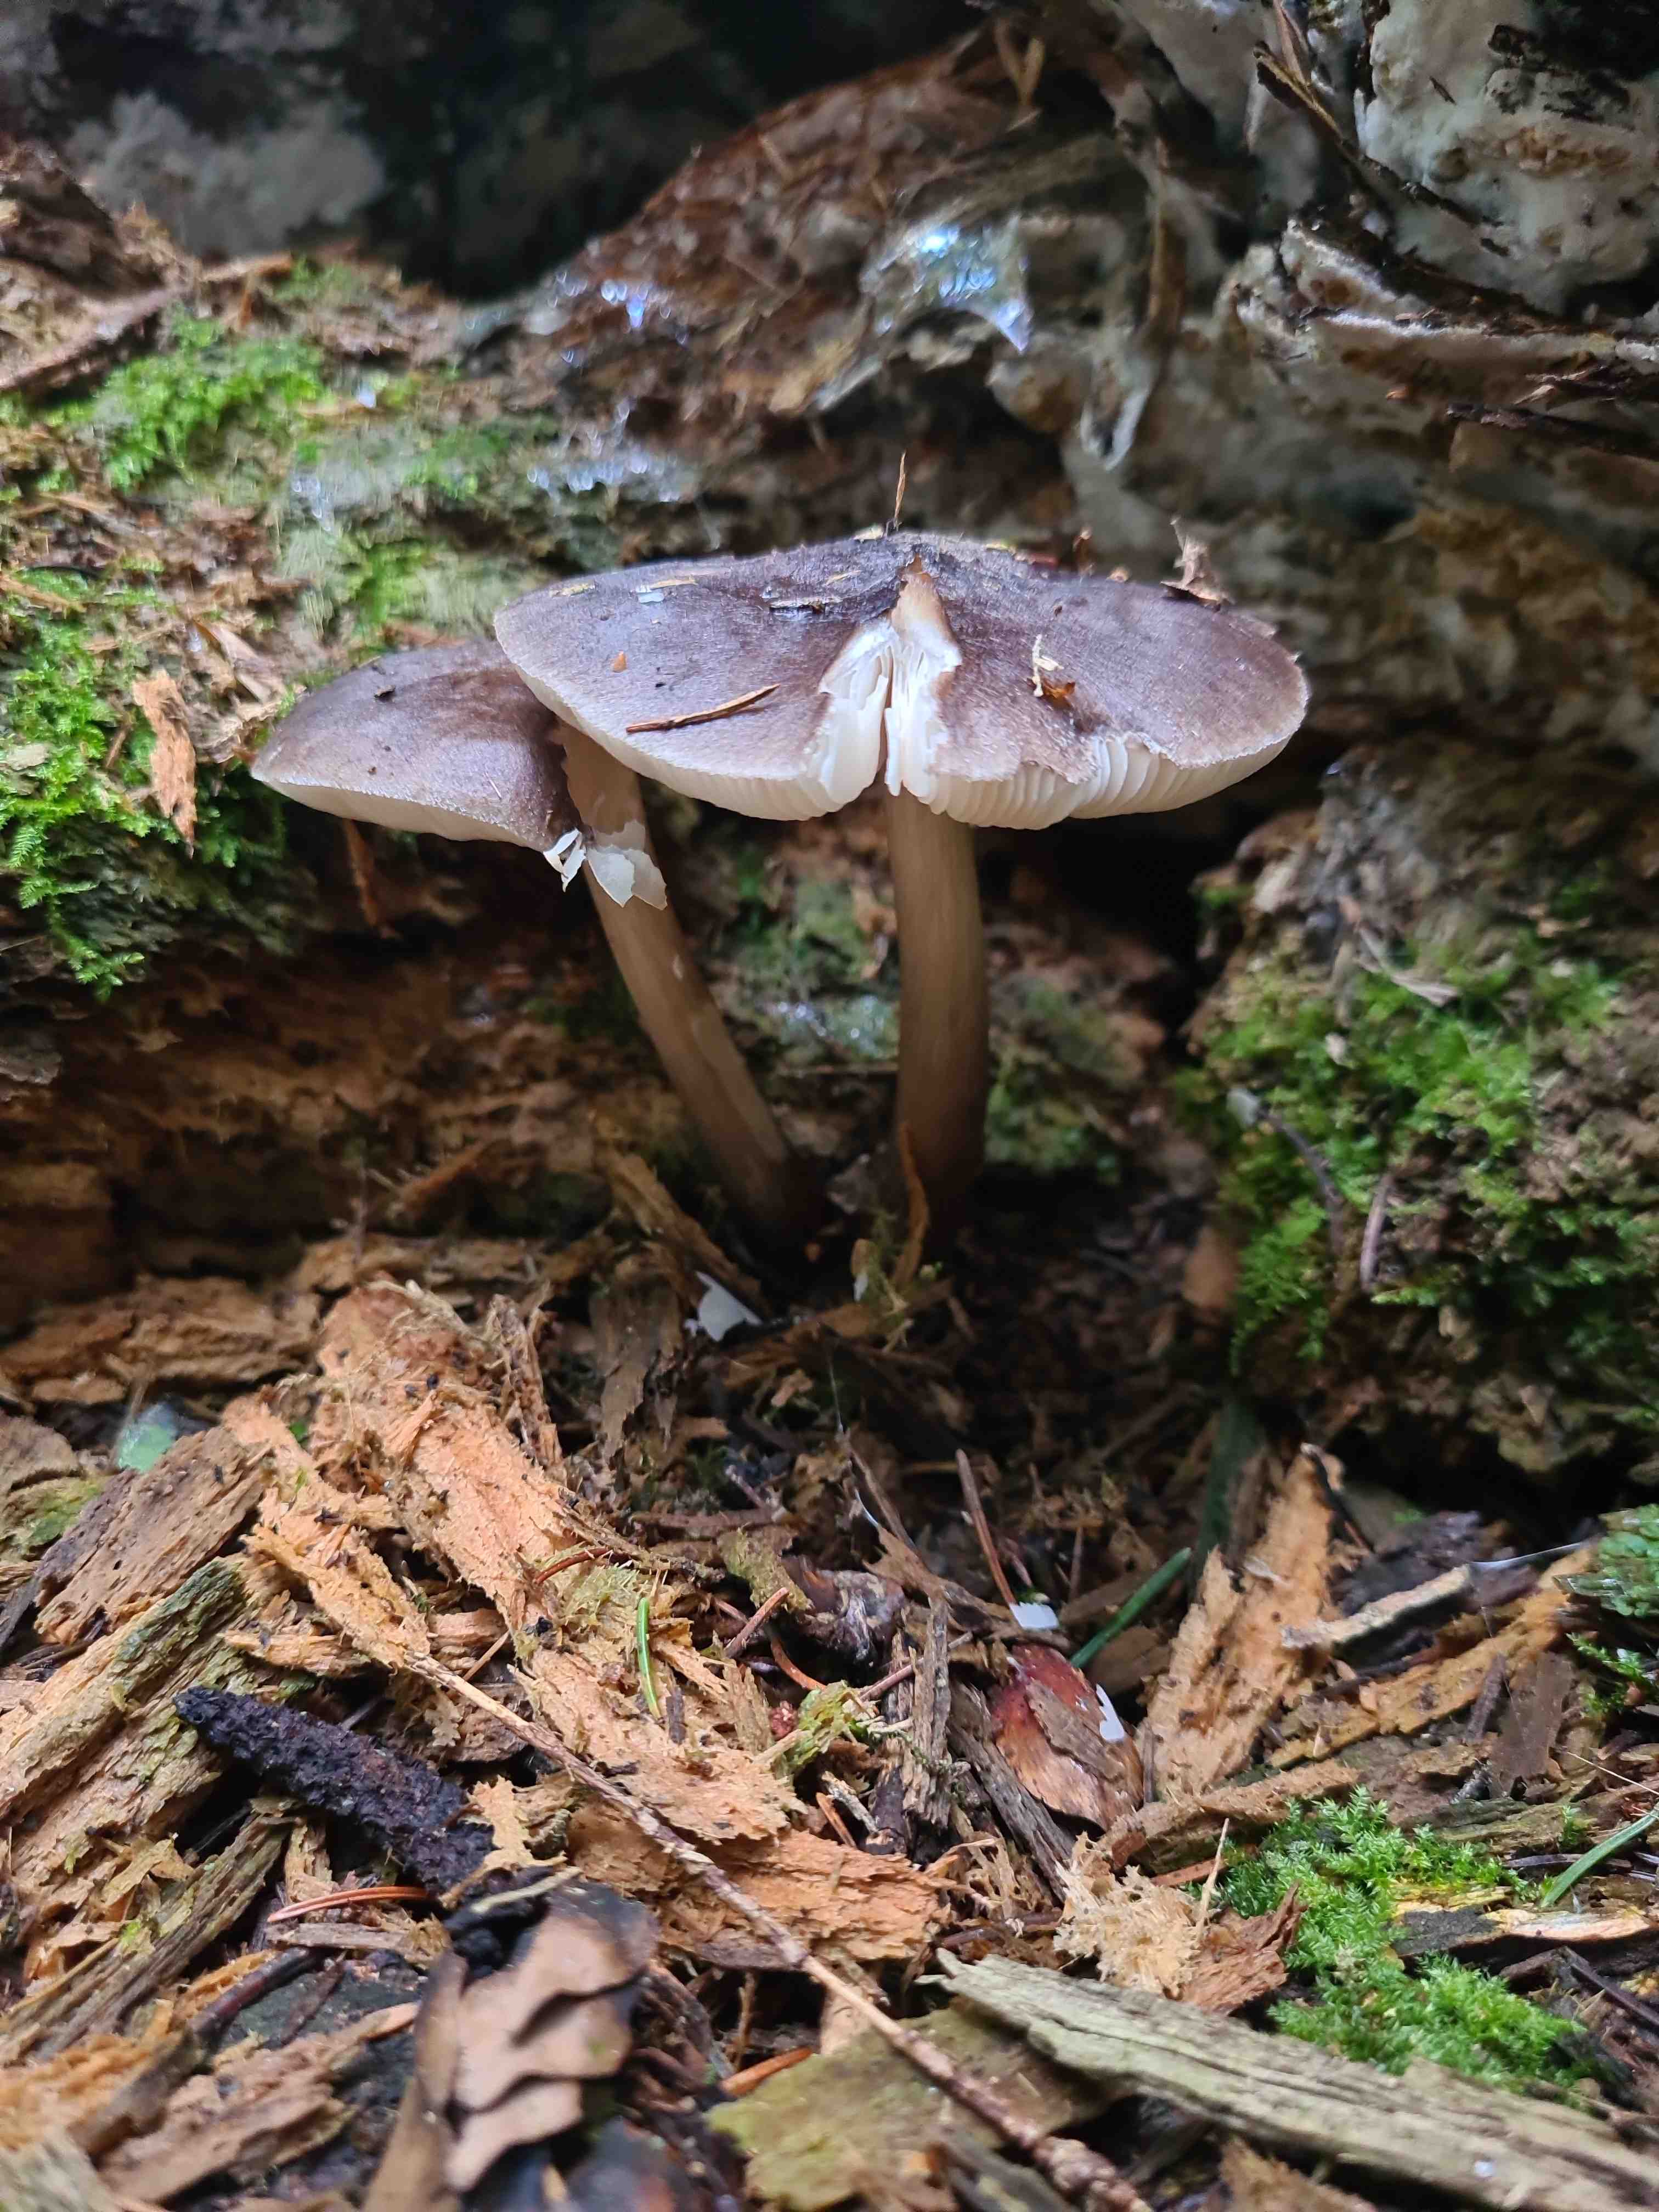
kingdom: Fungi
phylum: Basidiomycota
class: Agaricomycetes
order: Agaricales
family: Pluteaceae
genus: Pluteus
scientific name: Pluteus cervinus
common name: sodfarvet skærmhat
